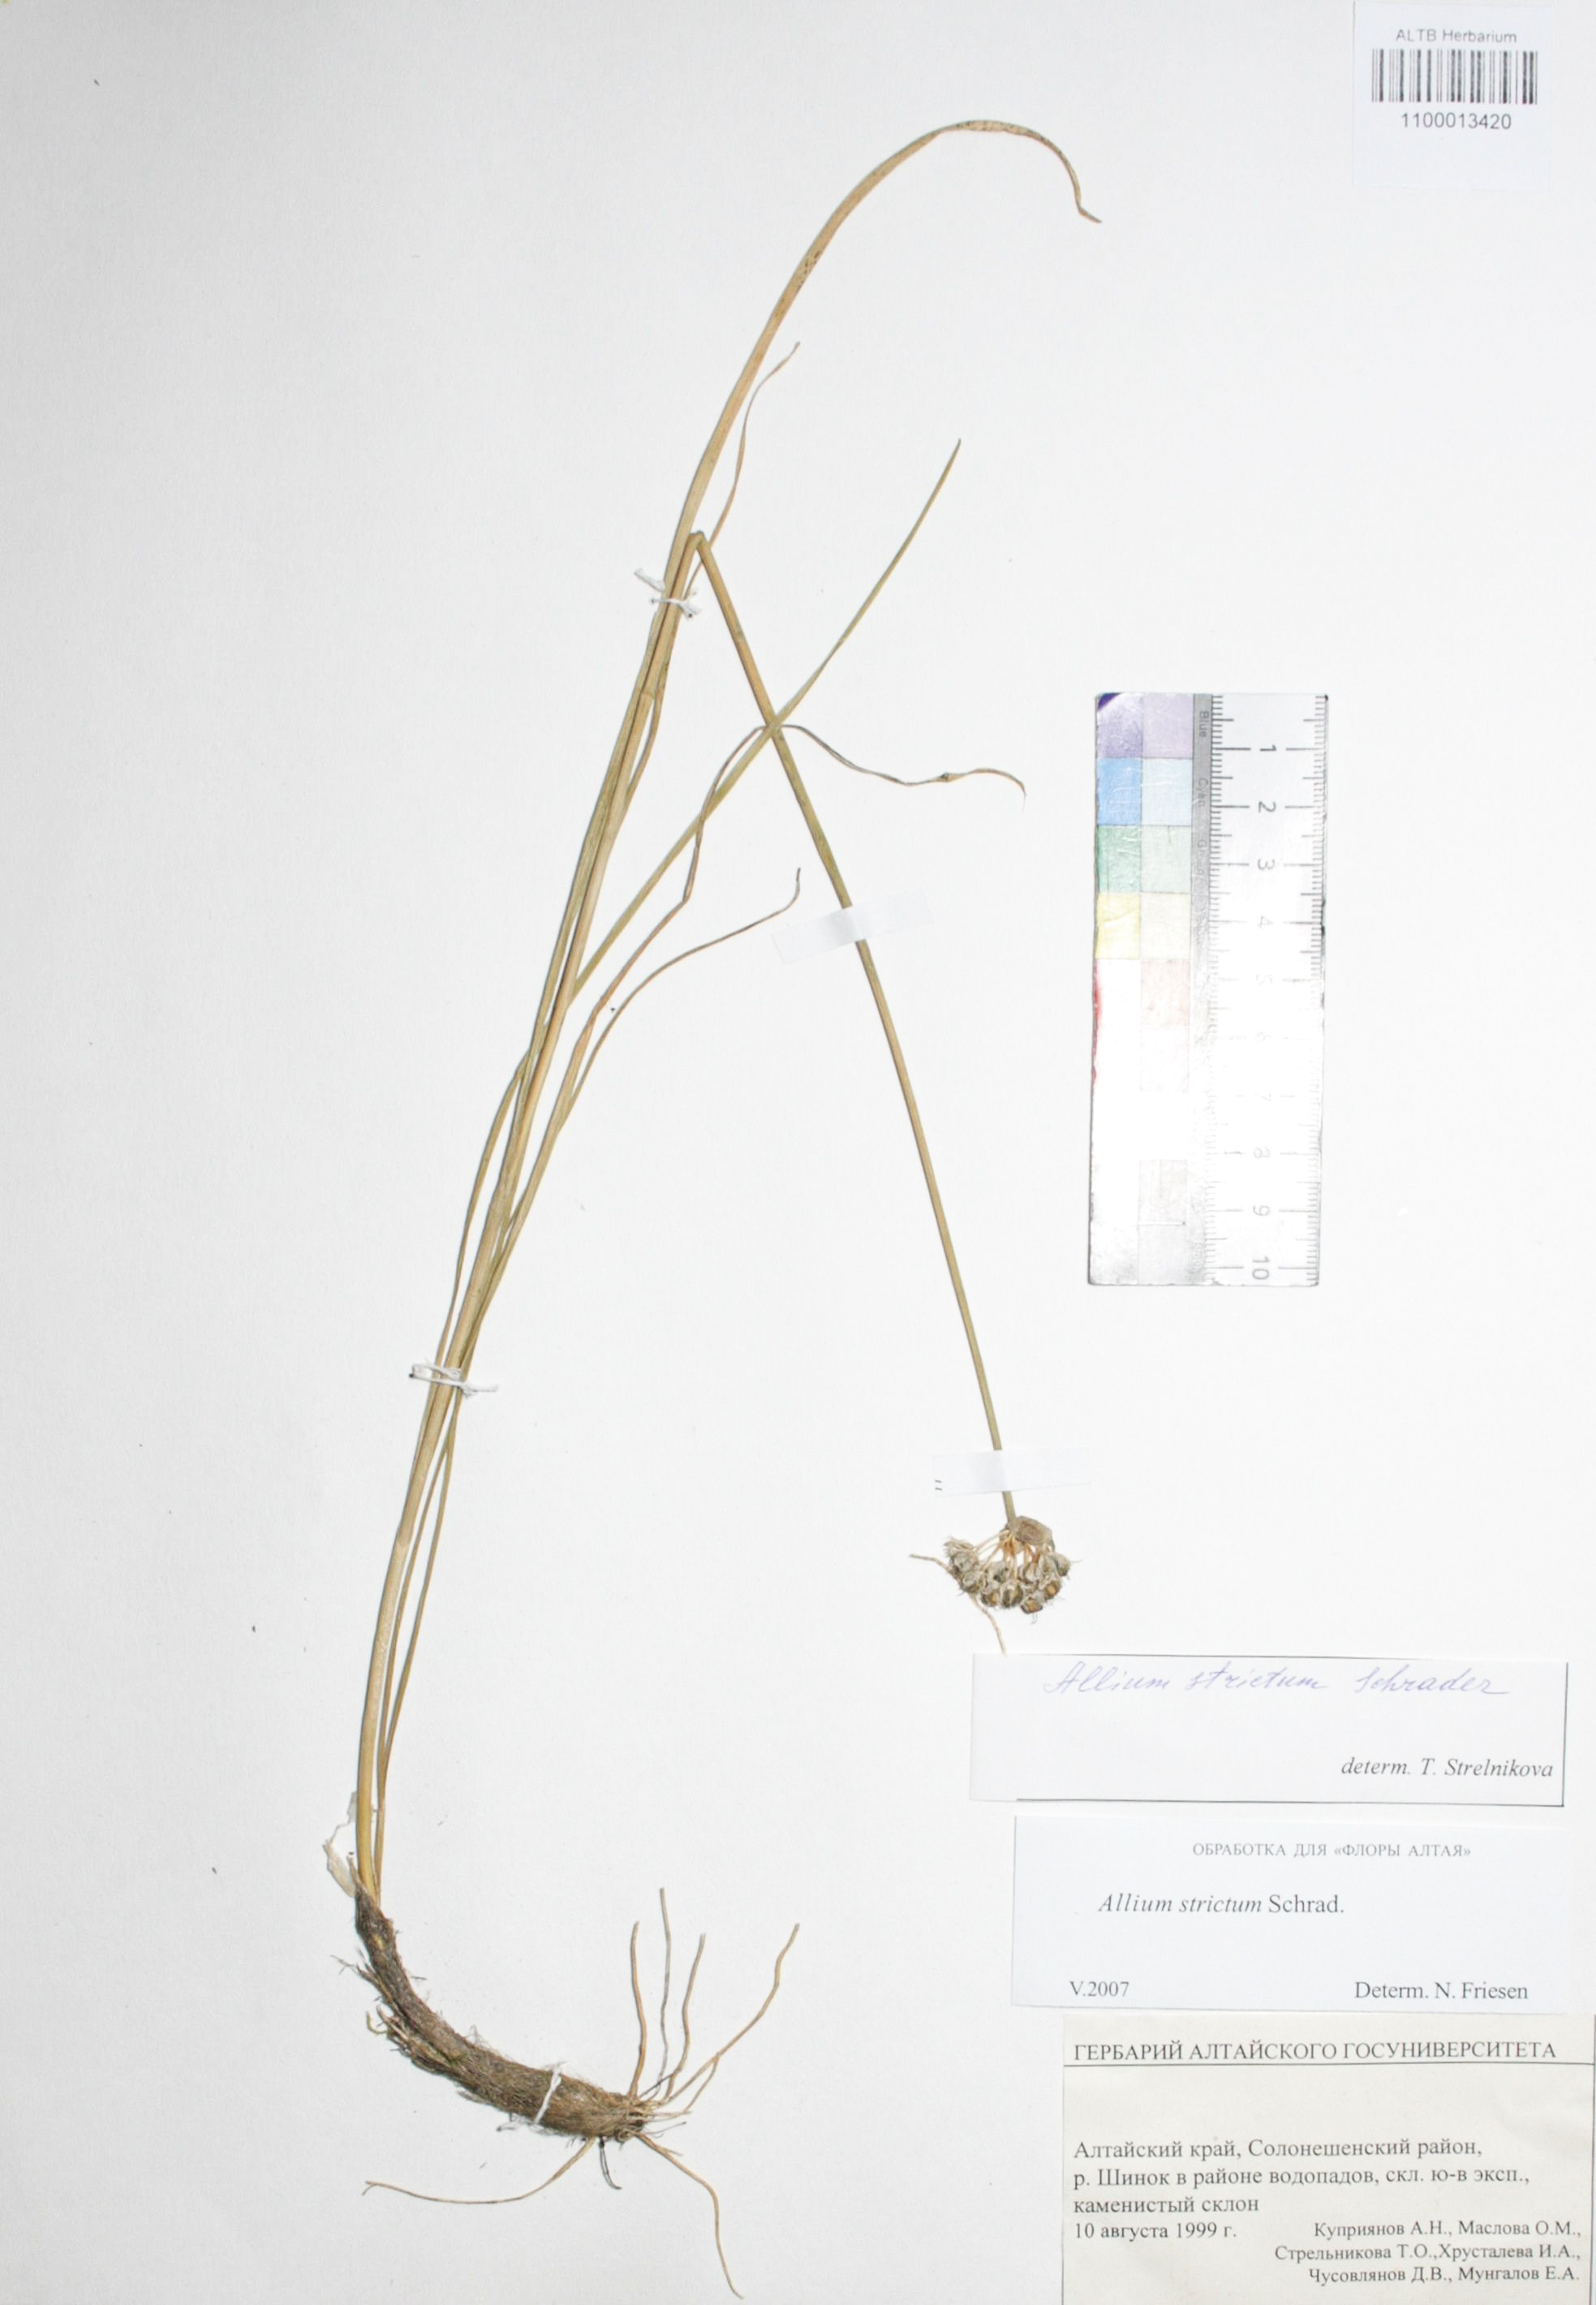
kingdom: Plantae
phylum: Tracheophyta
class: Liliopsida
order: Asparagales
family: Amaryllidaceae
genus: Allium
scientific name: Allium strictum
